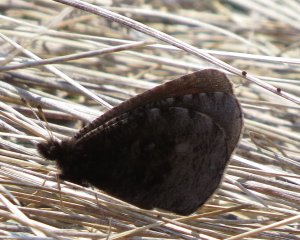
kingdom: Animalia
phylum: Arthropoda
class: Insecta
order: Lepidoptera
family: Nymphalidae
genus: Erebia
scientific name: Erebia discoidalis
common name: Red-disked Alpine
